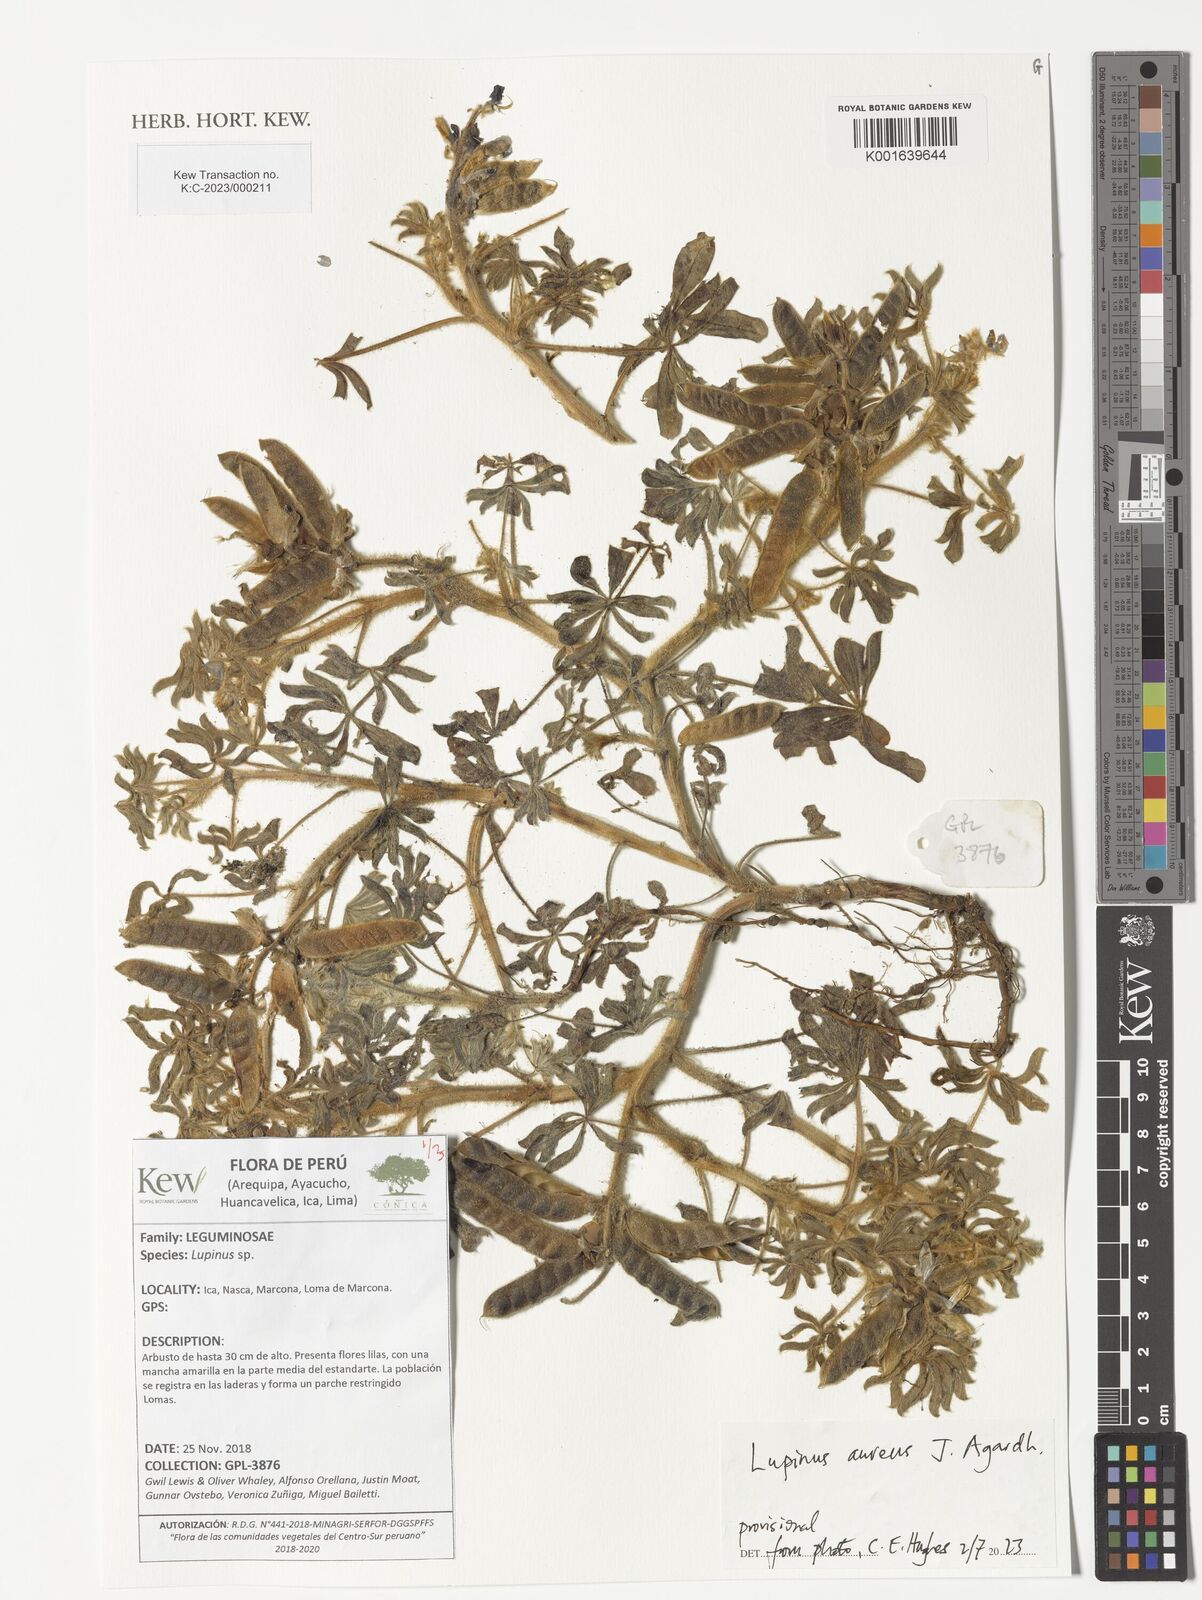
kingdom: Plantae
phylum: Tracheophyta
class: Magnoliopsida
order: Fabales
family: Fabaceae
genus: Lupinus
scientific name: Lupinus aureus
